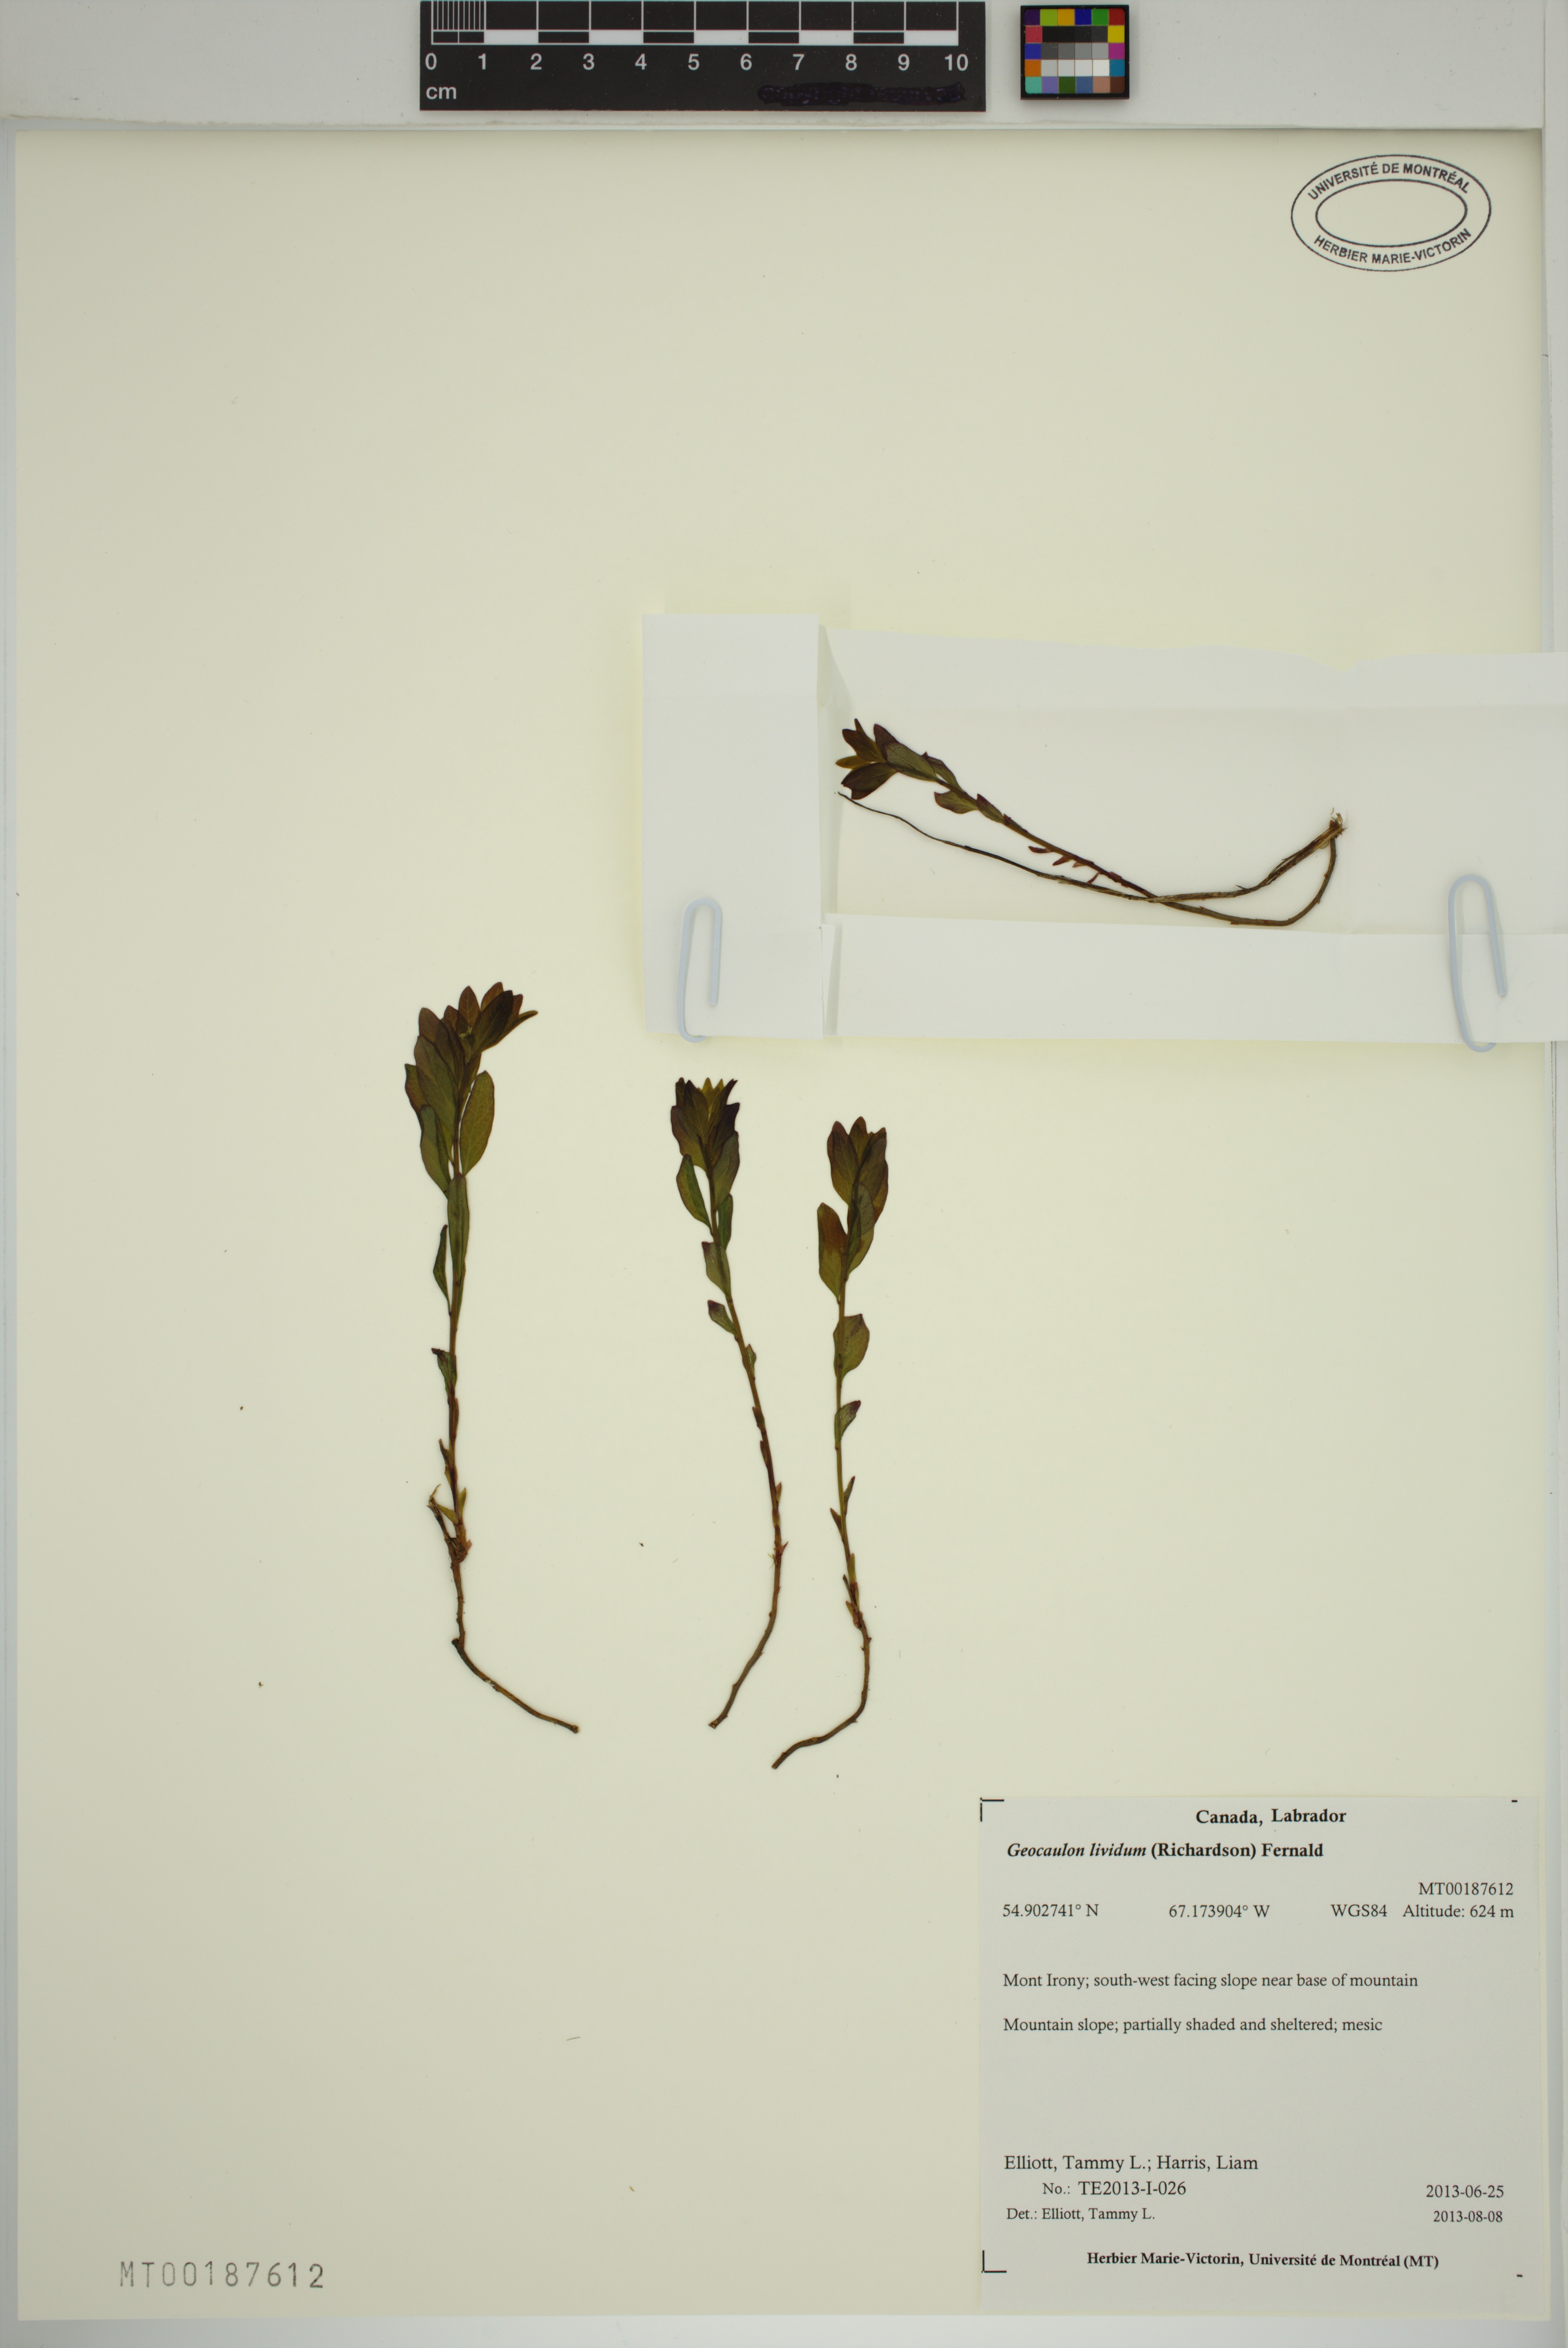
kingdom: Plantae
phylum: Tracheophyta
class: Magnoliopsida
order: Santalales
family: Comandraceae
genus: Geocaulon
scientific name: Geocaulon lividum
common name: Earthberry
